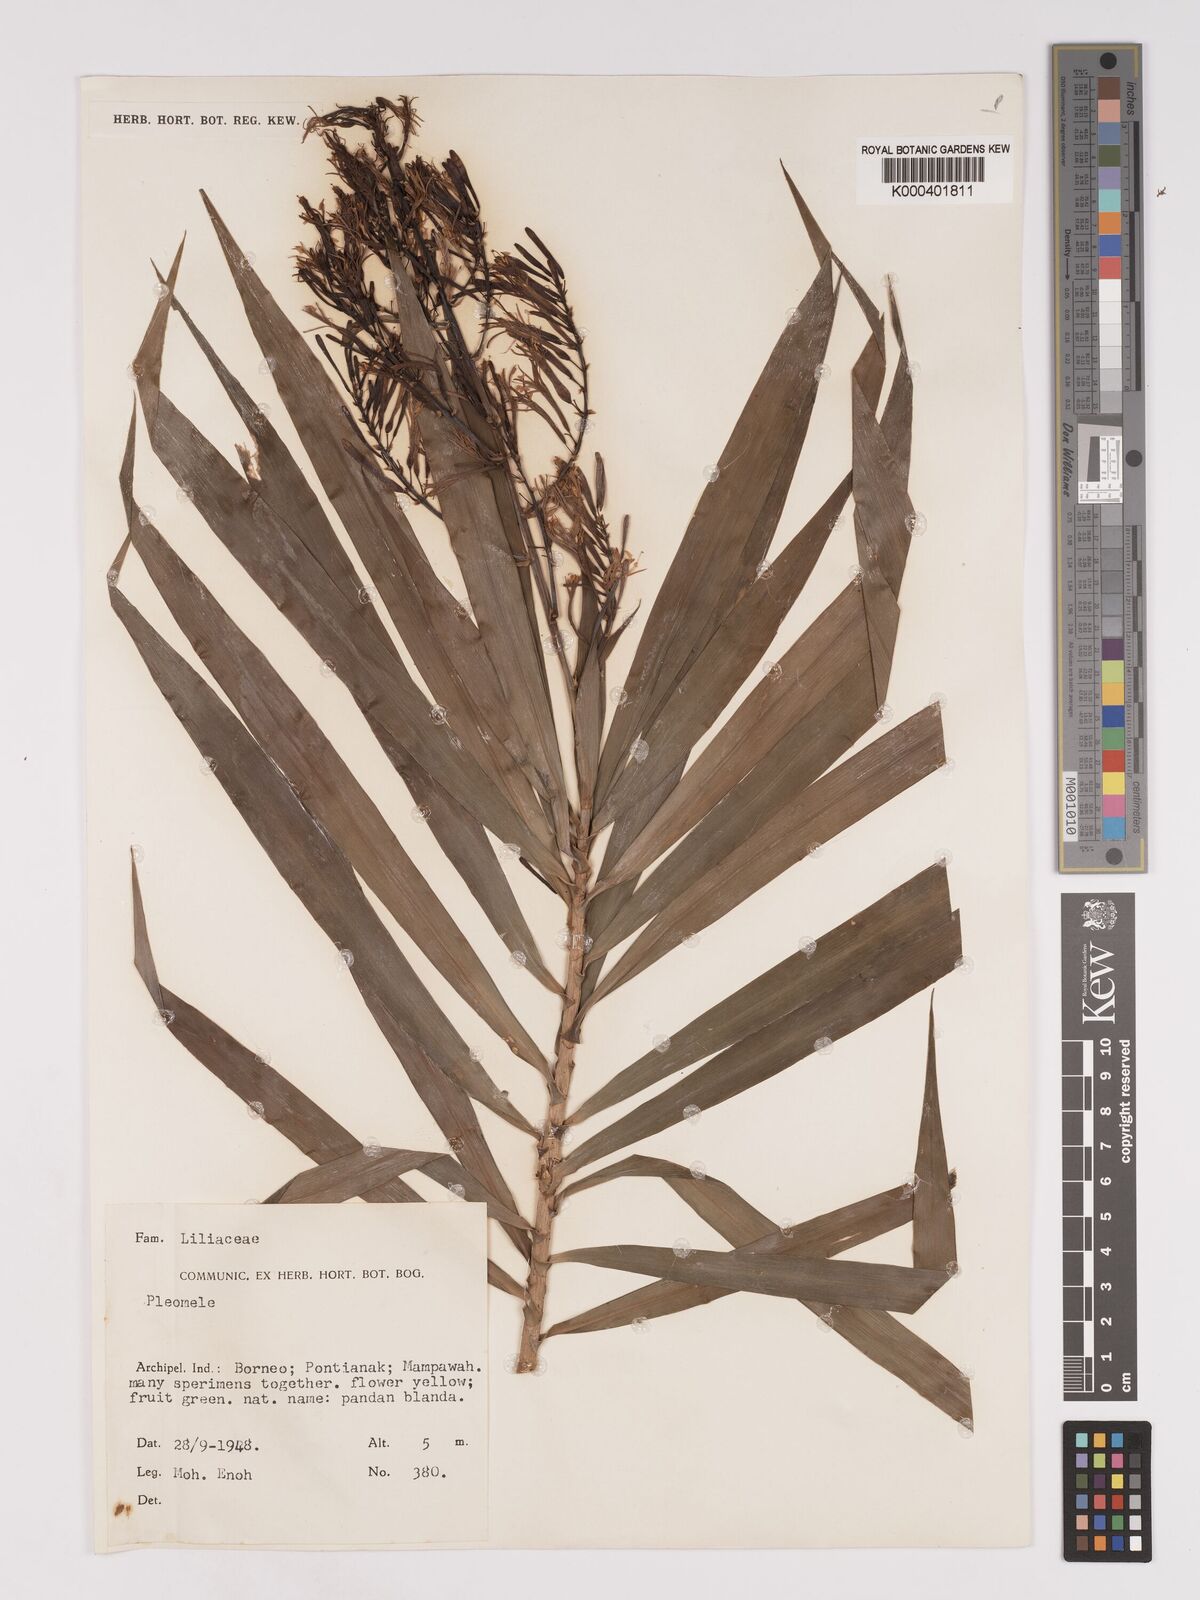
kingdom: Plantae
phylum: Tracheophyta
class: Liliopsida
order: Asparagales
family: Asparagaceae
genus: Dracaena
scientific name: Dracaena
